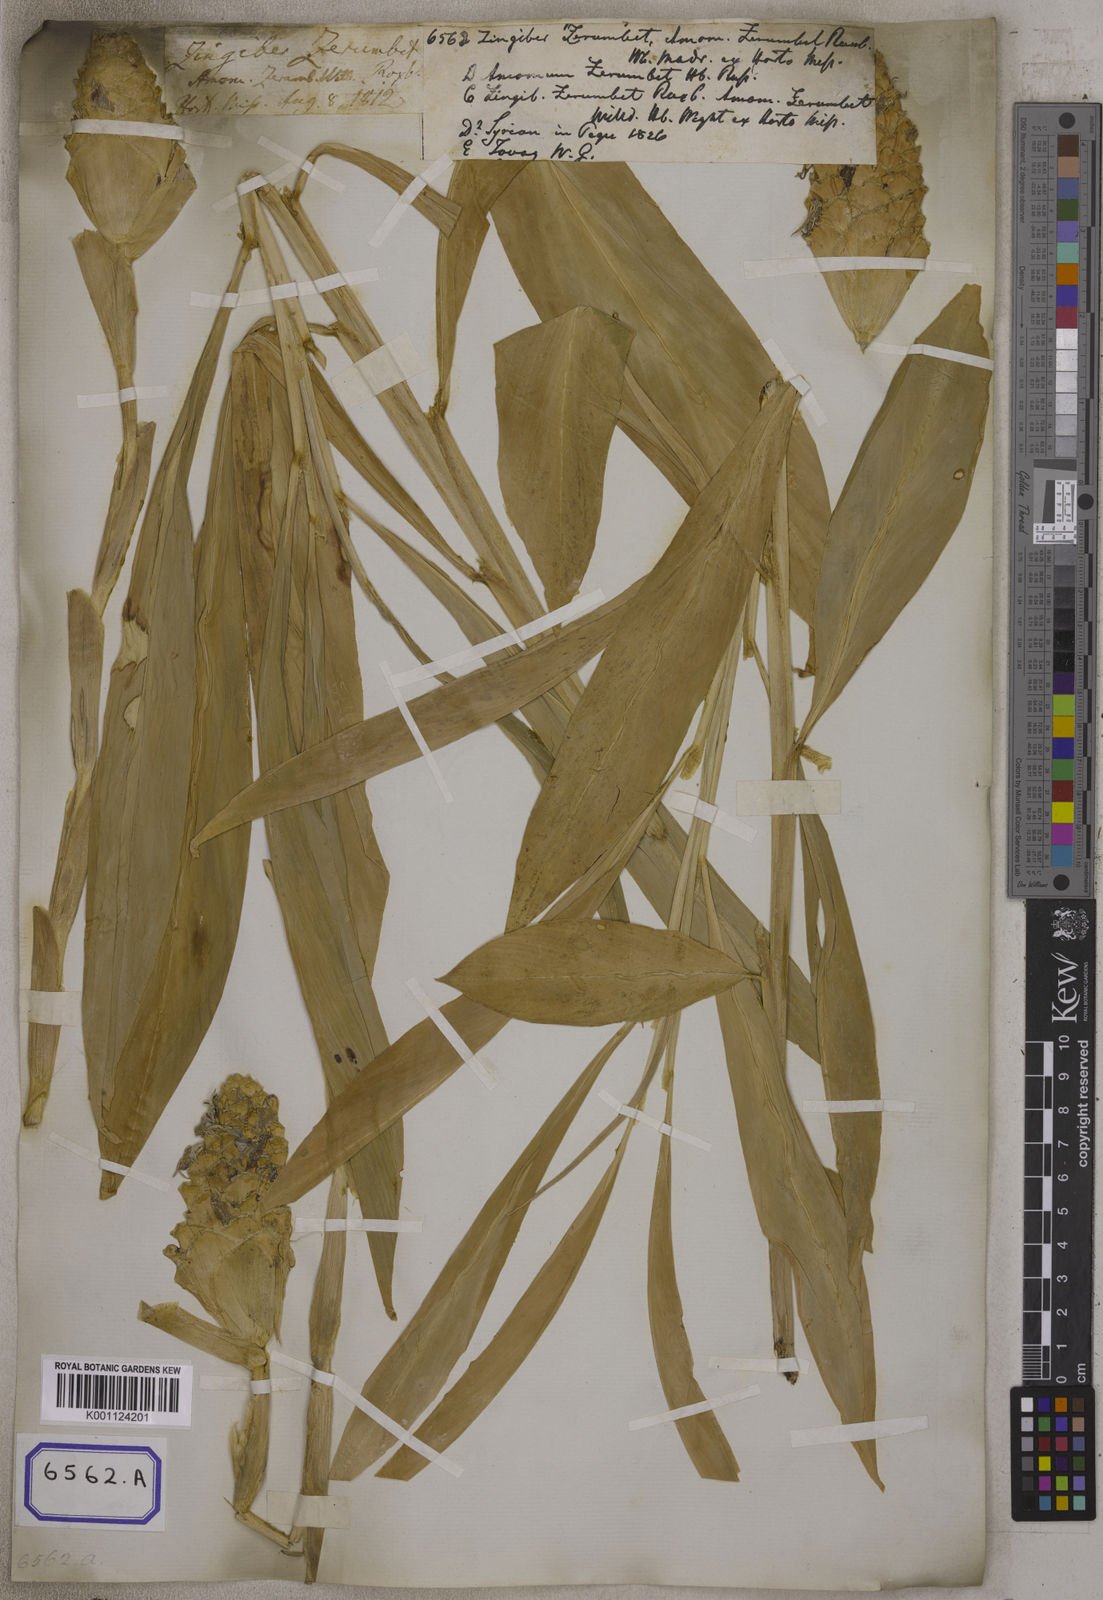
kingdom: Plantae
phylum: Tracheophyta
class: Liliopsida
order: Zingiberales
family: Zingiberaceae
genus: Zingiber
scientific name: Zingiber zerumbet
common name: Bitter ginger
